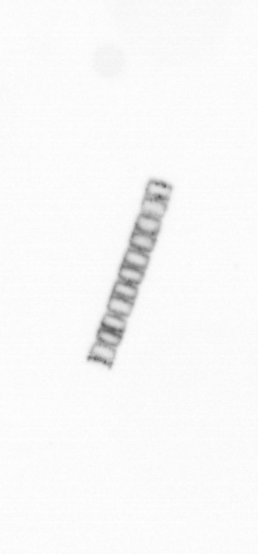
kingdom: Chromista
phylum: Ochrophyta
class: Bacillariophyceae
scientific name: Bacillariophyceae
